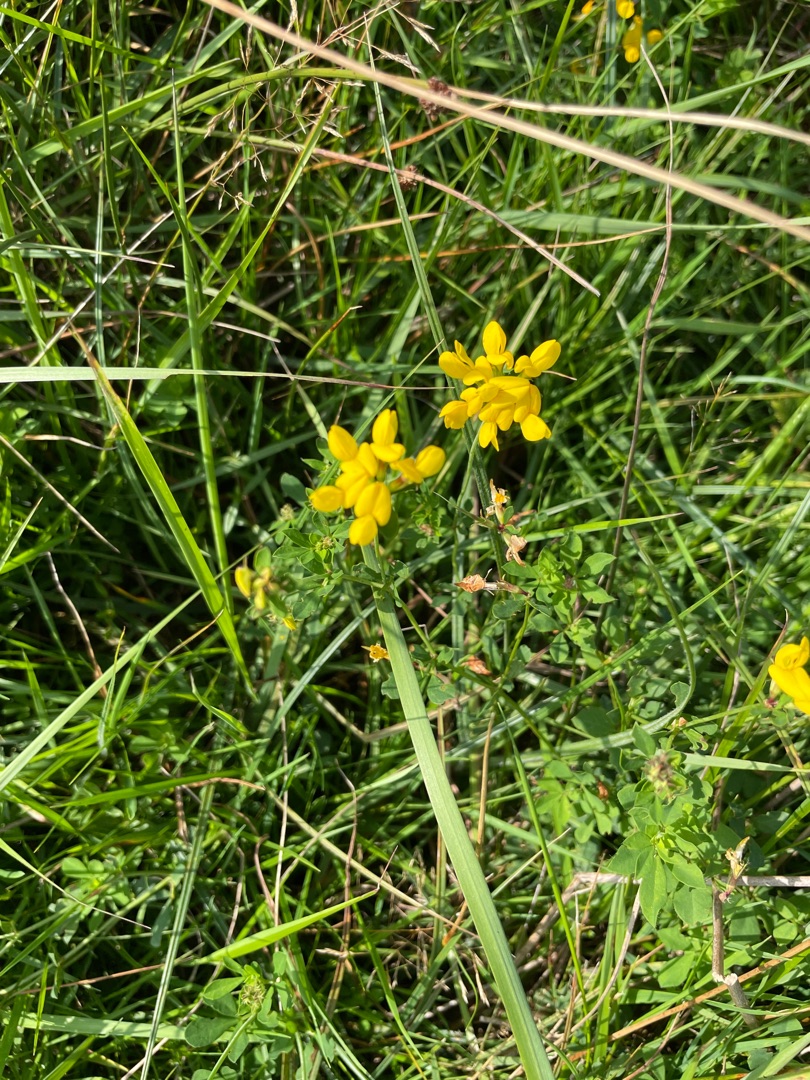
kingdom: Plantae
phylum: Tracheophyta
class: Magnoliopsida
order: Fabales
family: Fabaceae
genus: Lotus
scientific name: Lotus
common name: Kællingetandslægten
